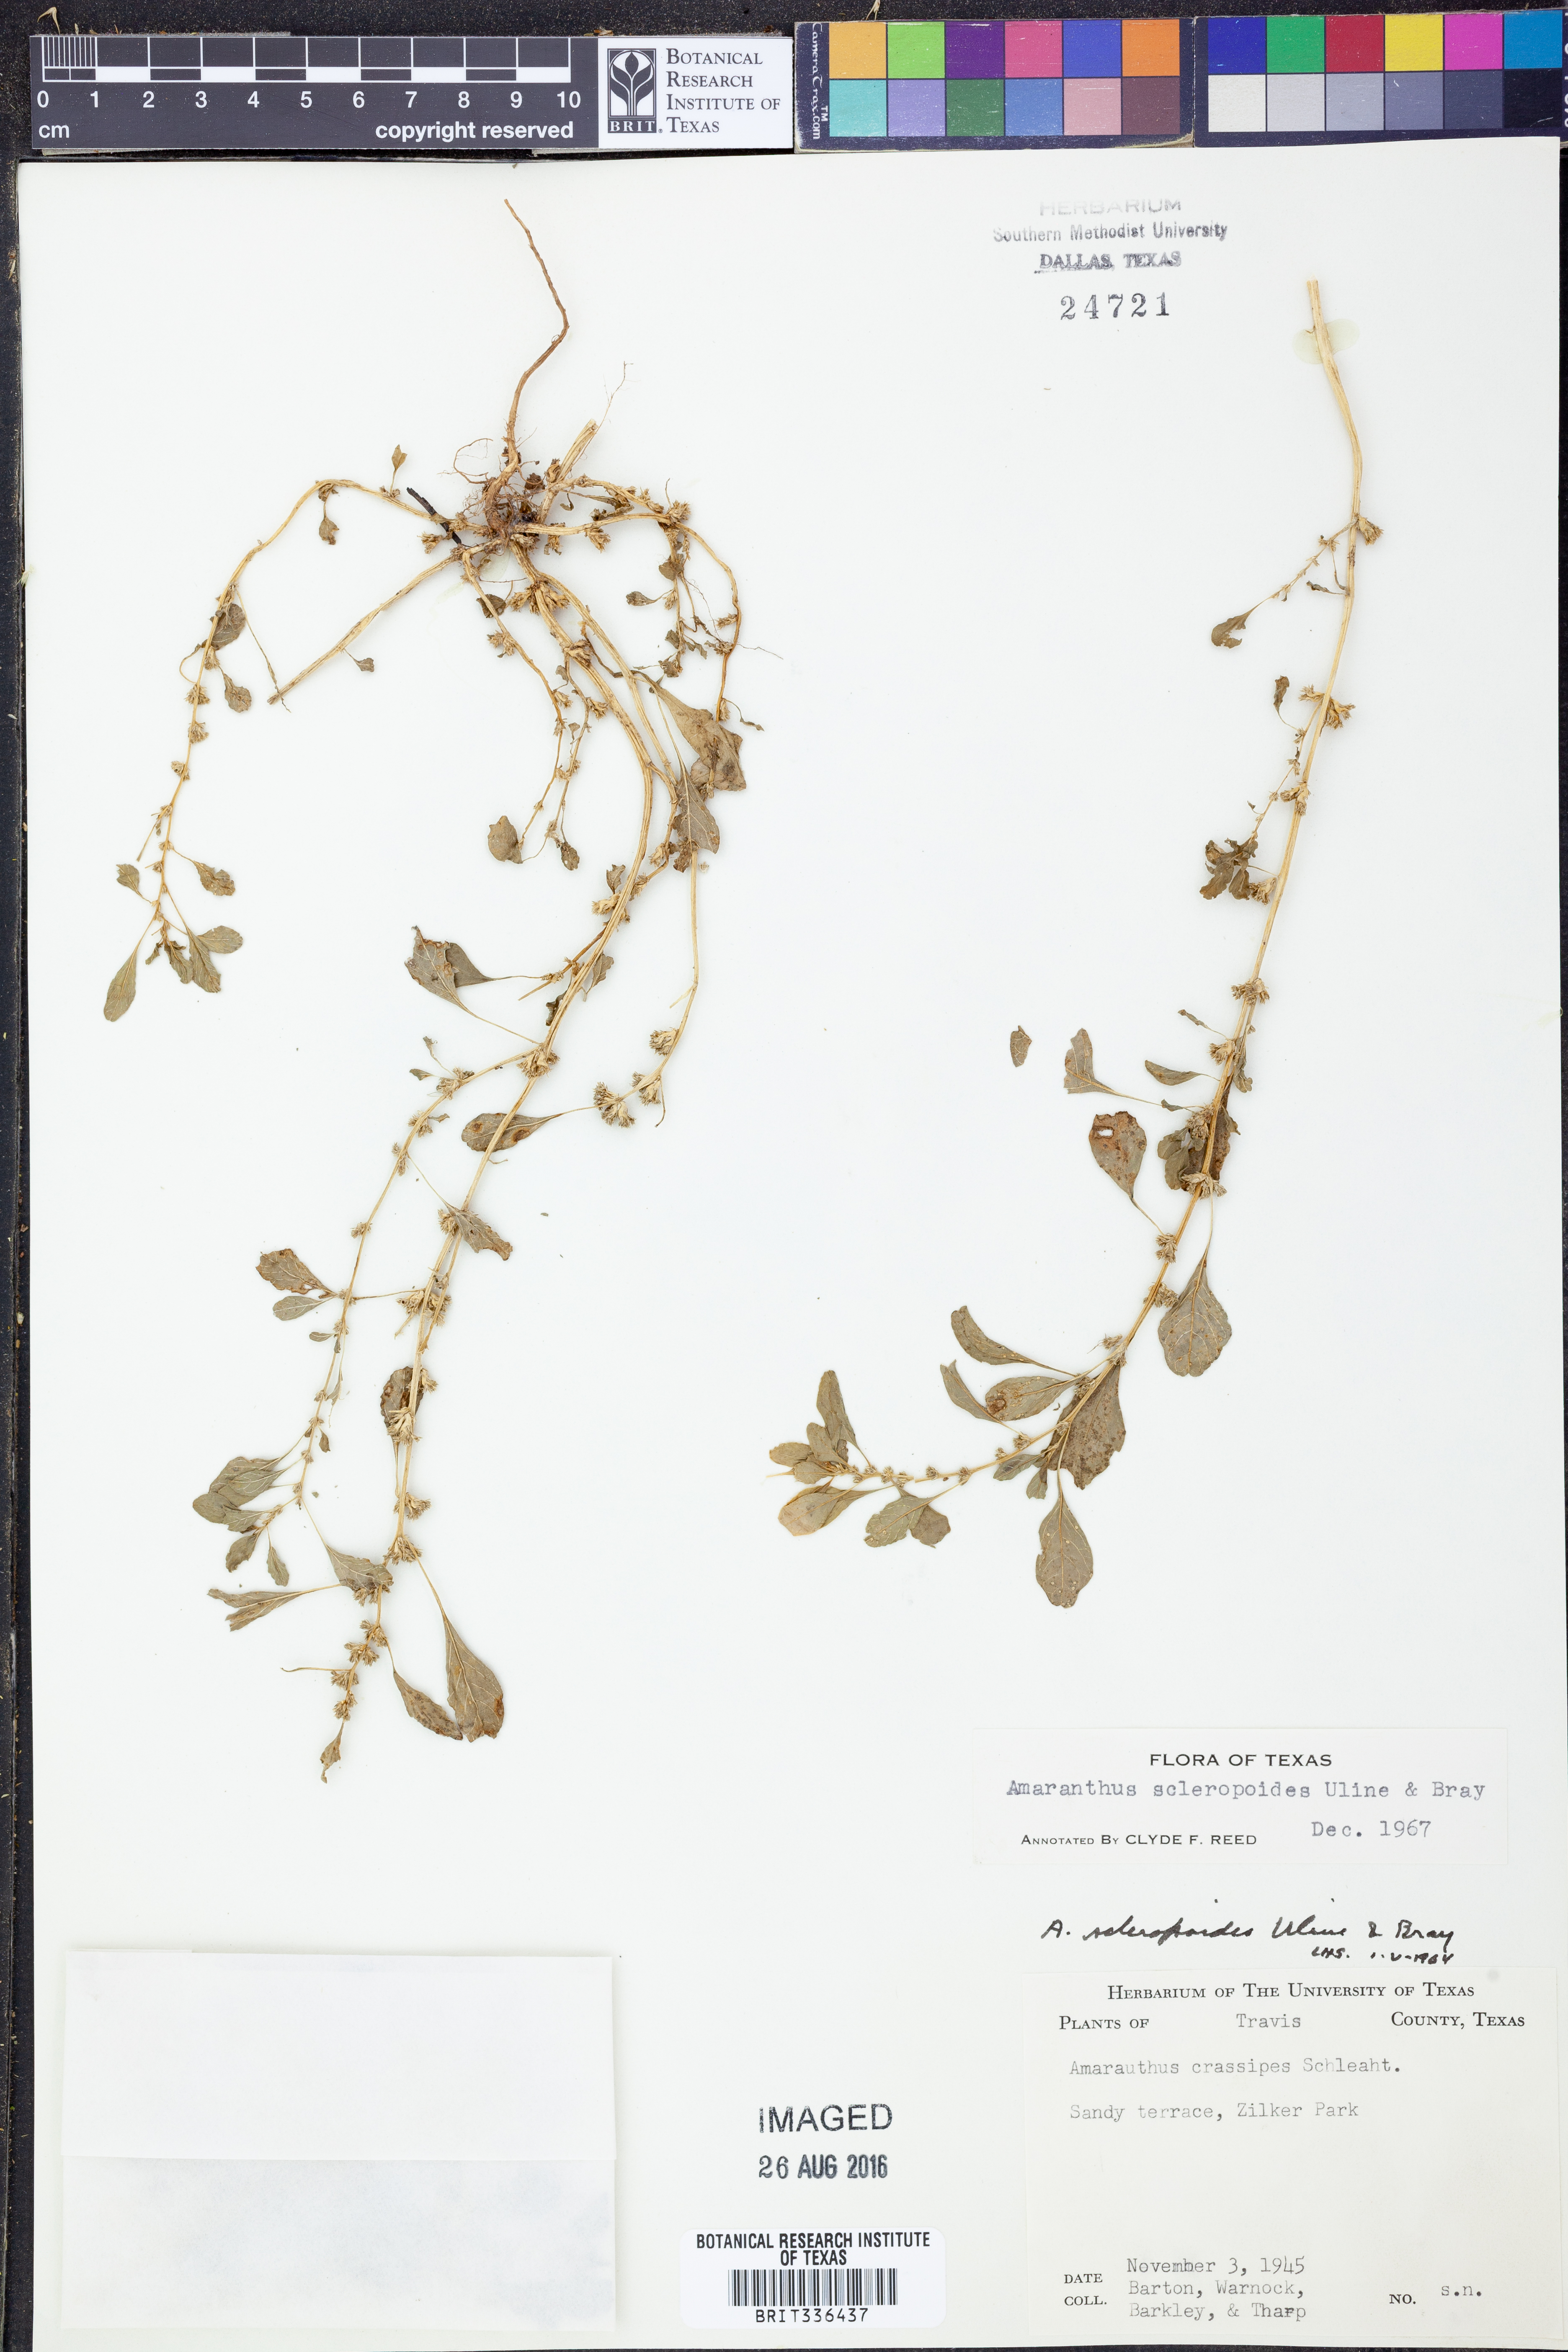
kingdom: Plantae
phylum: Tracheophyta
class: Magnoliopsida
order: Caryophyllales
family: Amaranthaceae
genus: Amaranthus
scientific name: Amaranthus scleropoides
